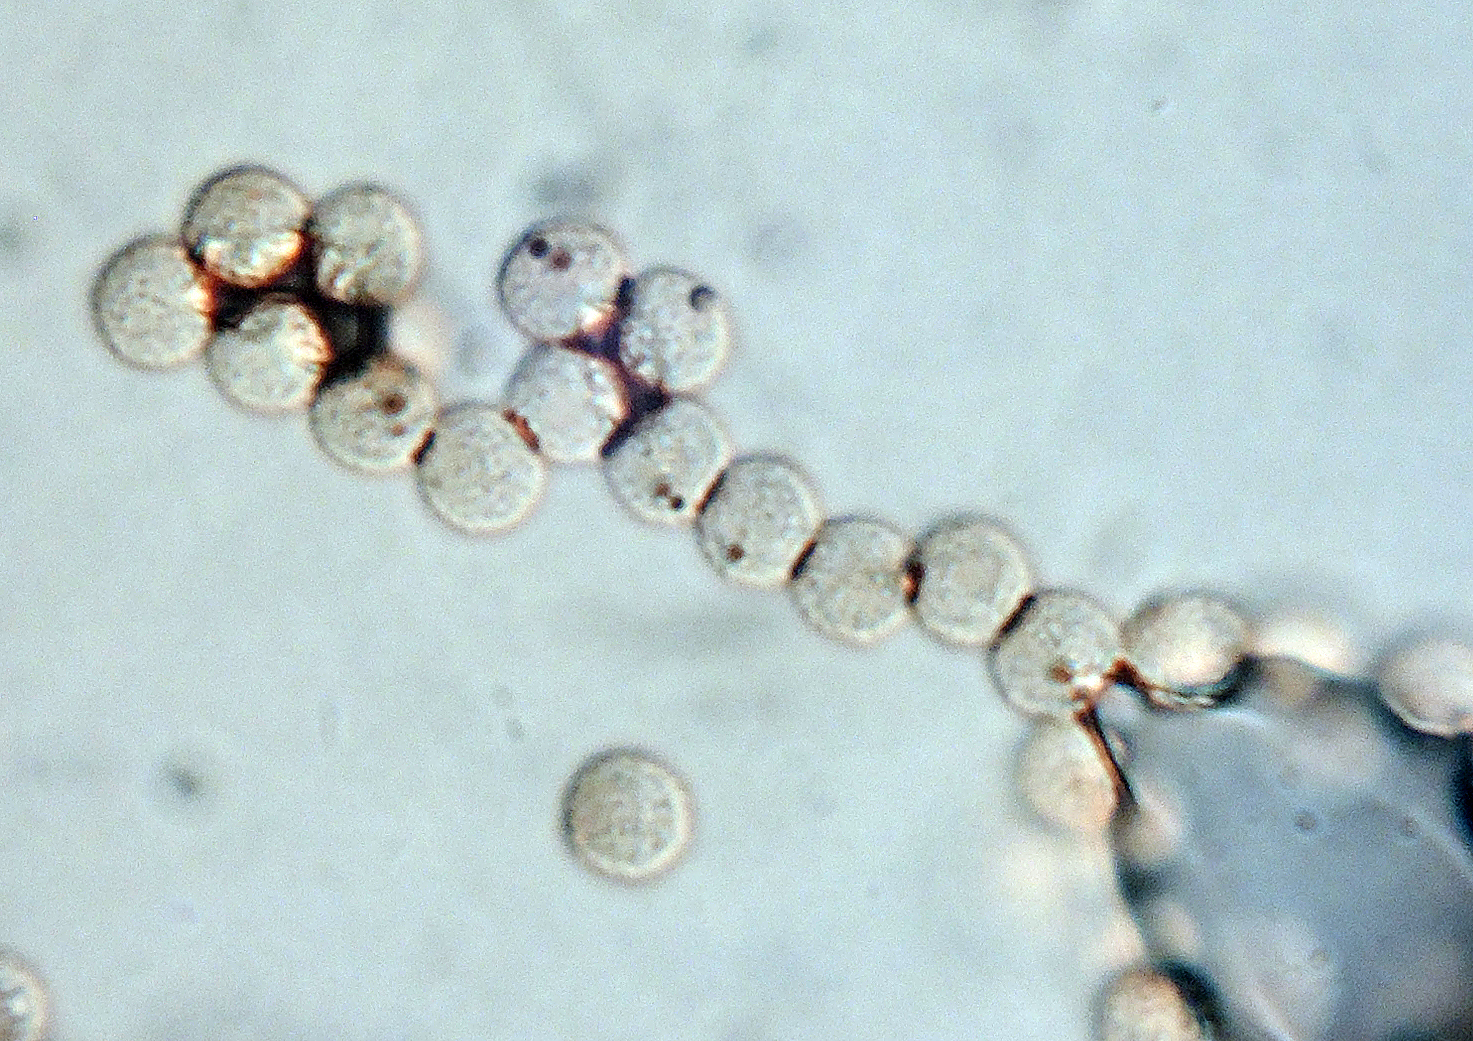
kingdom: Protozoa
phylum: Mycetozoa
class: Myxomycetes
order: Cribrariales
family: Cribrariaceae
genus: Cribraria
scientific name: Cribraria cancellata
